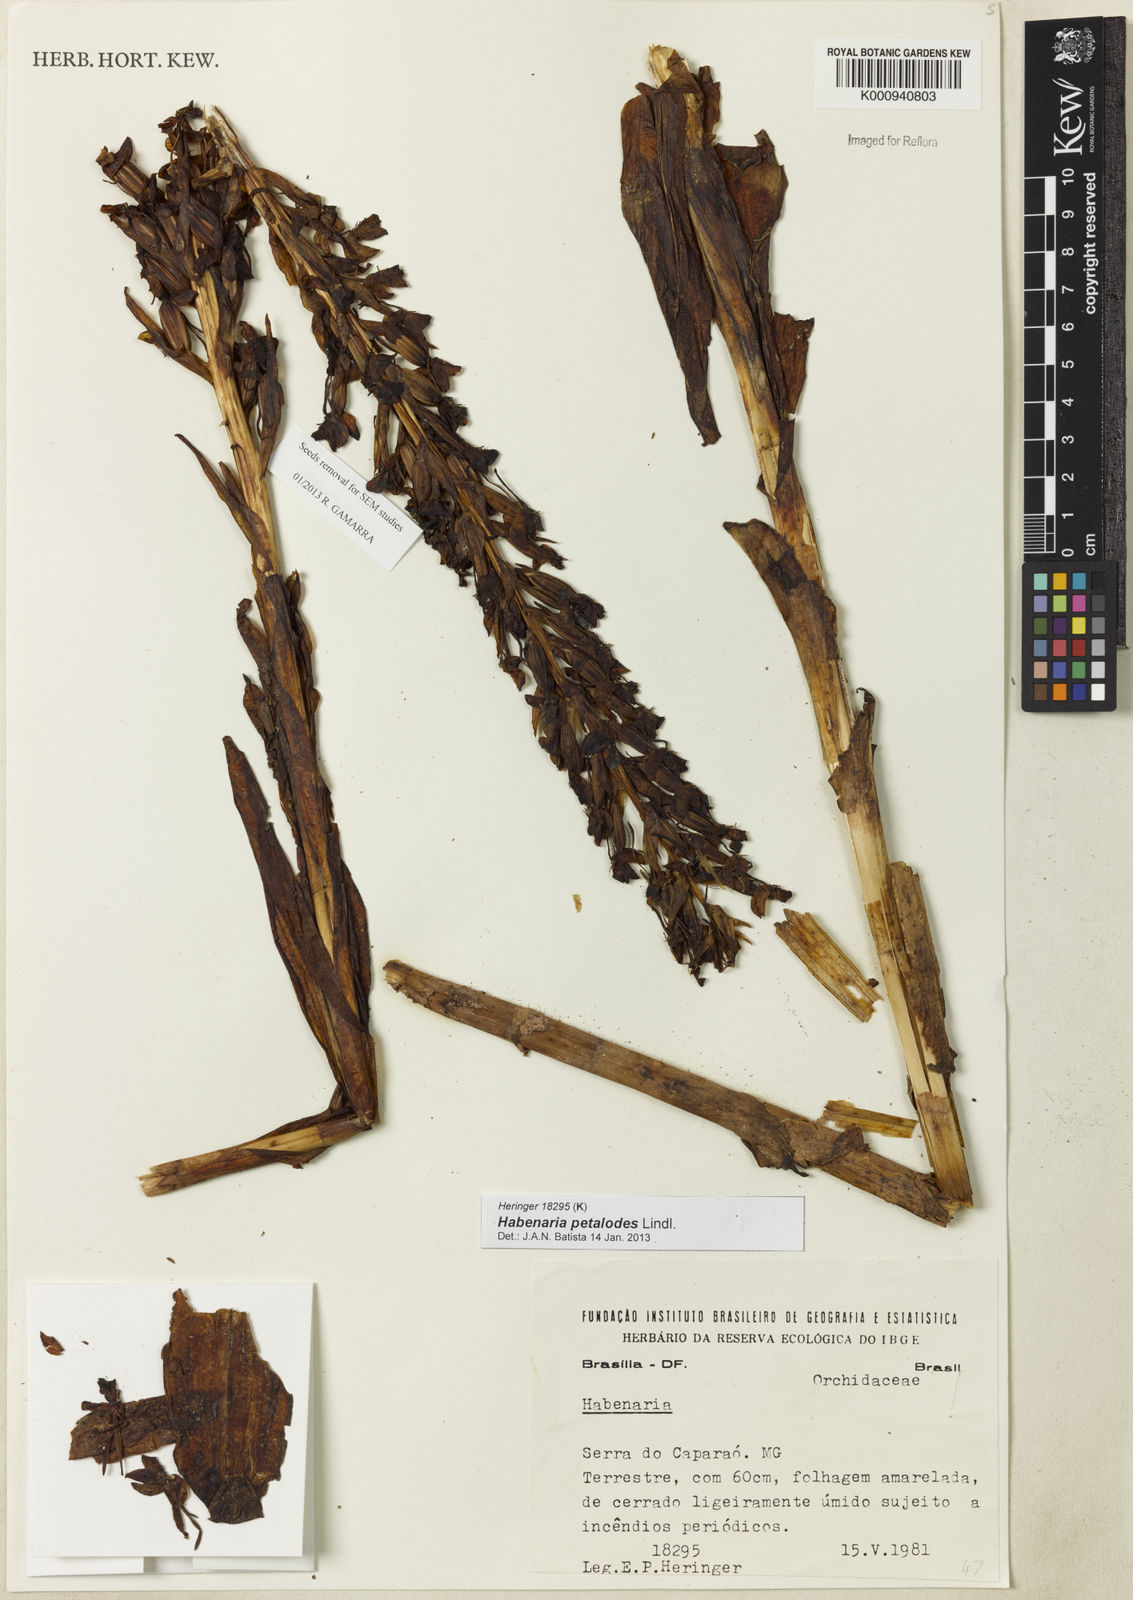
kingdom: Plantae
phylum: Tracheophyta
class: Liliopsida
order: Asparagales
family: Orchidaceae
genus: Habenaria
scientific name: Habenaria petalodes
